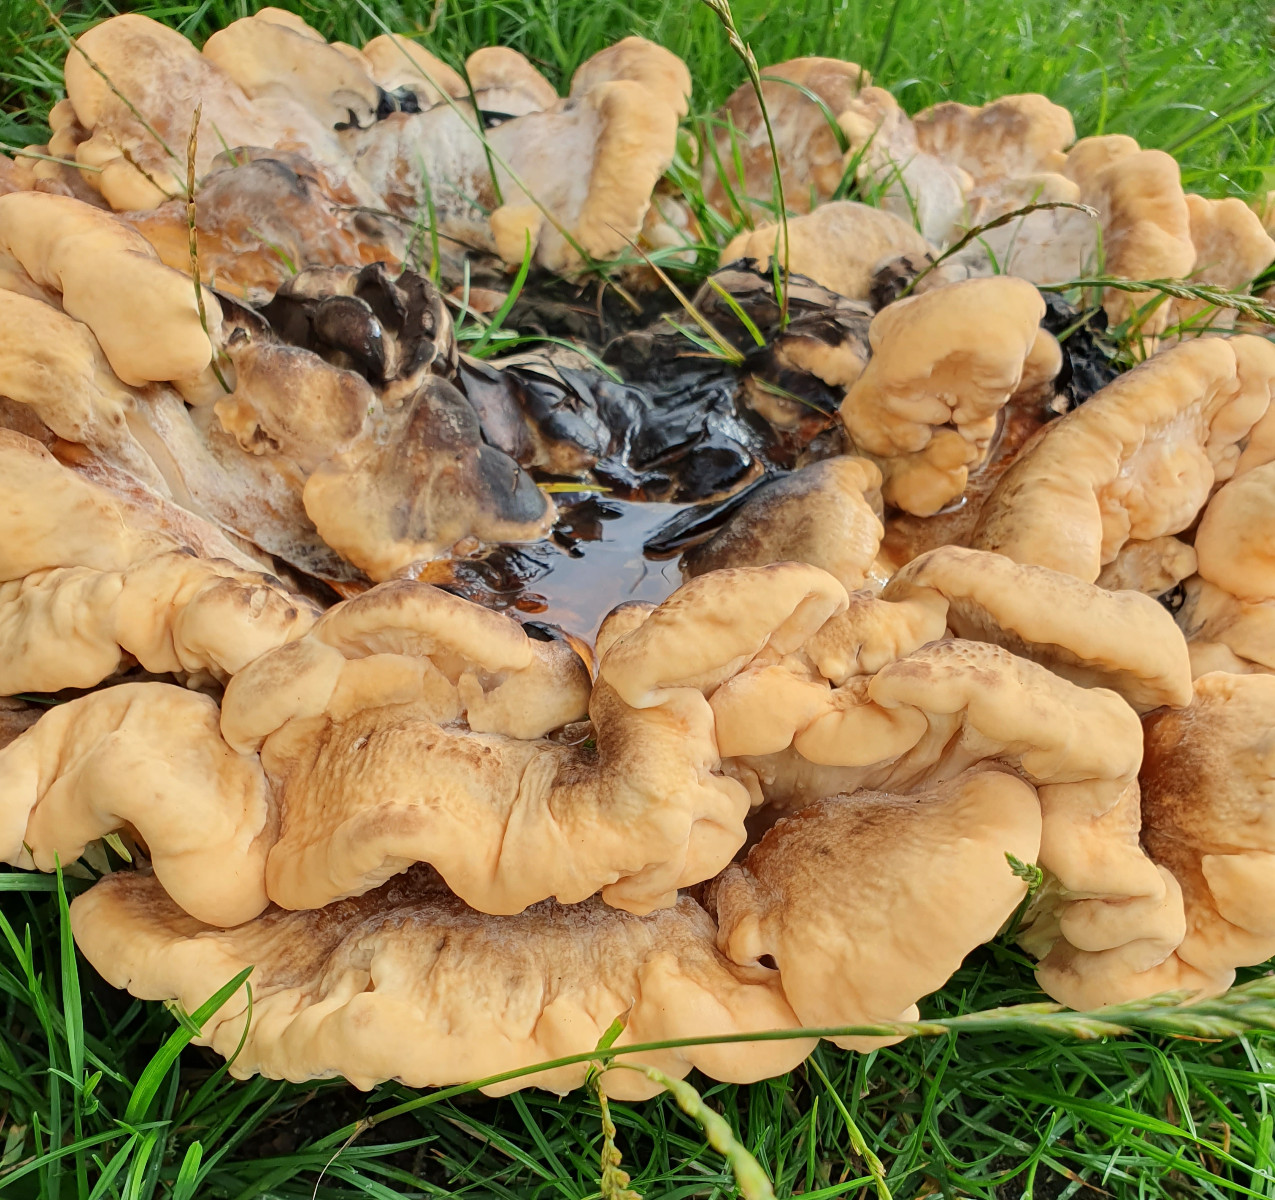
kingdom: Fungi
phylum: Basidiomycota
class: Agaricomycetes
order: Polyporales
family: Meripilaceae
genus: Meripilus
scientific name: Meripilus giganteus
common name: kæmpeporesvamp
